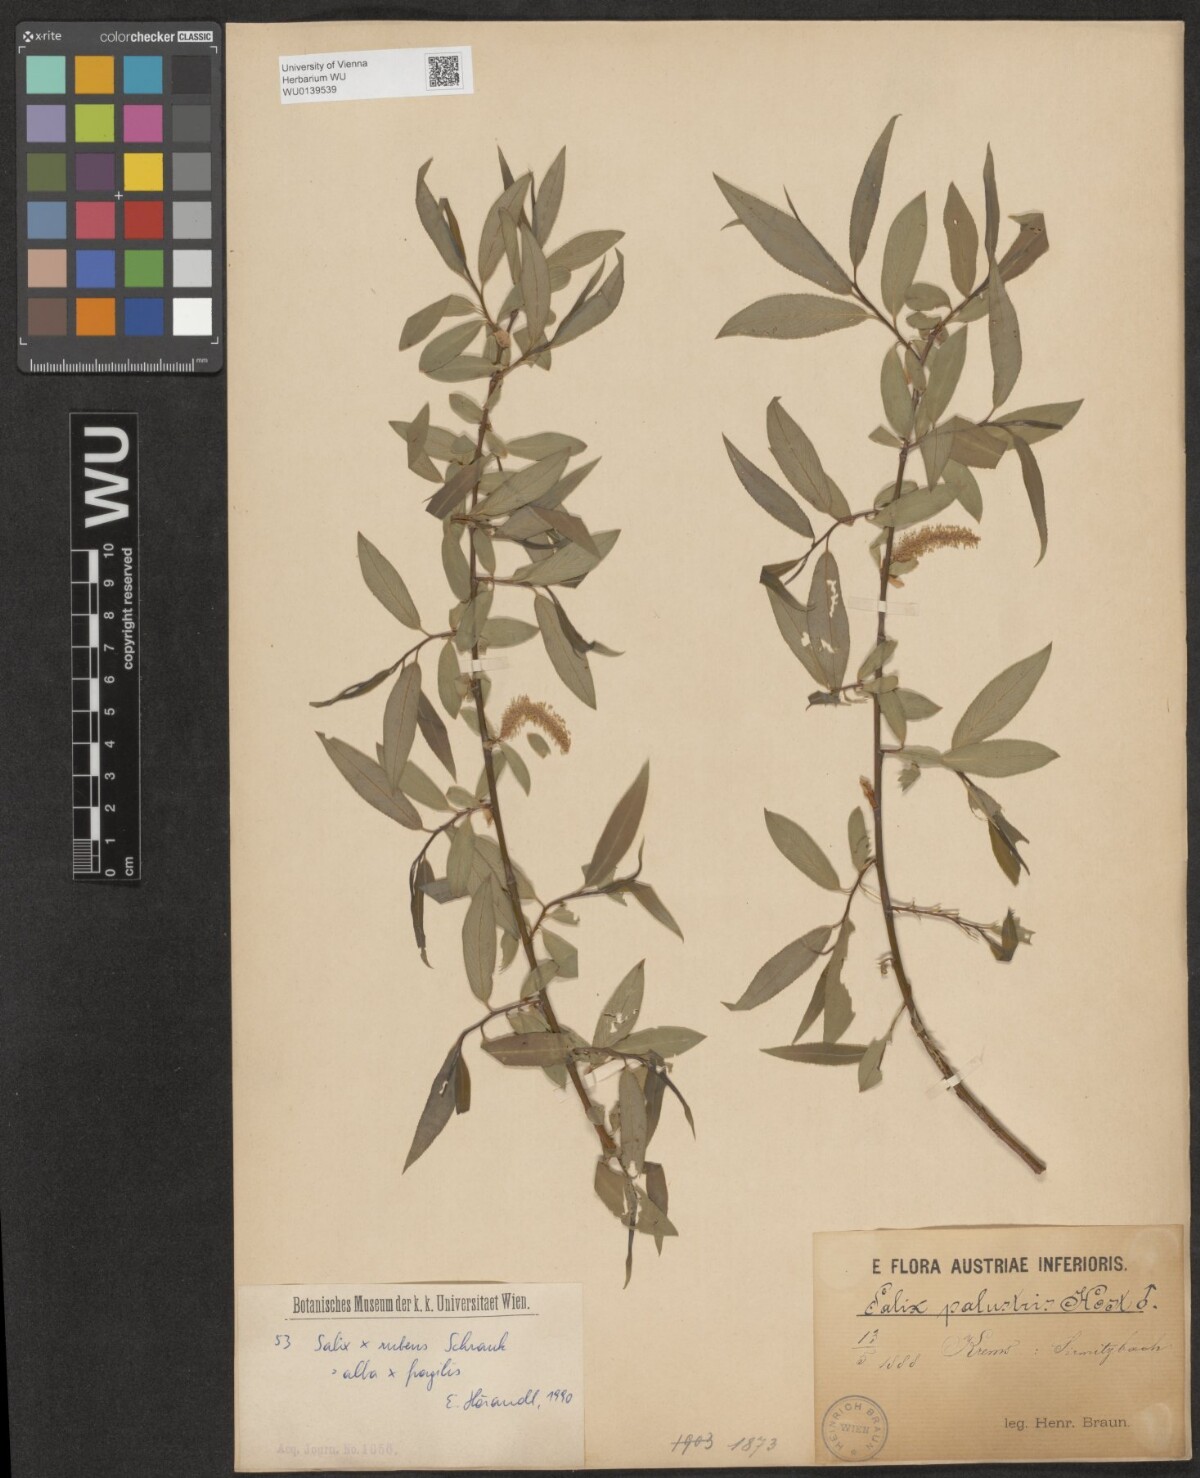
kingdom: Plantae
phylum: Tracheophyta
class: Magnoliopsida
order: Malpighiales
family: Salicaceae
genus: Salix
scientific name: Salix rubens
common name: Hybrid crack willow
